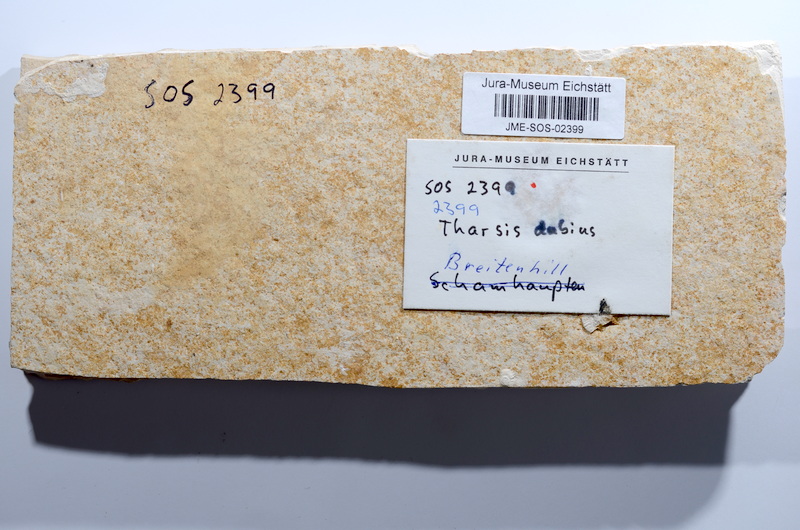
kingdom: Animalia
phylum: Chordata
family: Ascalaboidae
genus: Tharsis
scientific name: Tharsis dubius
